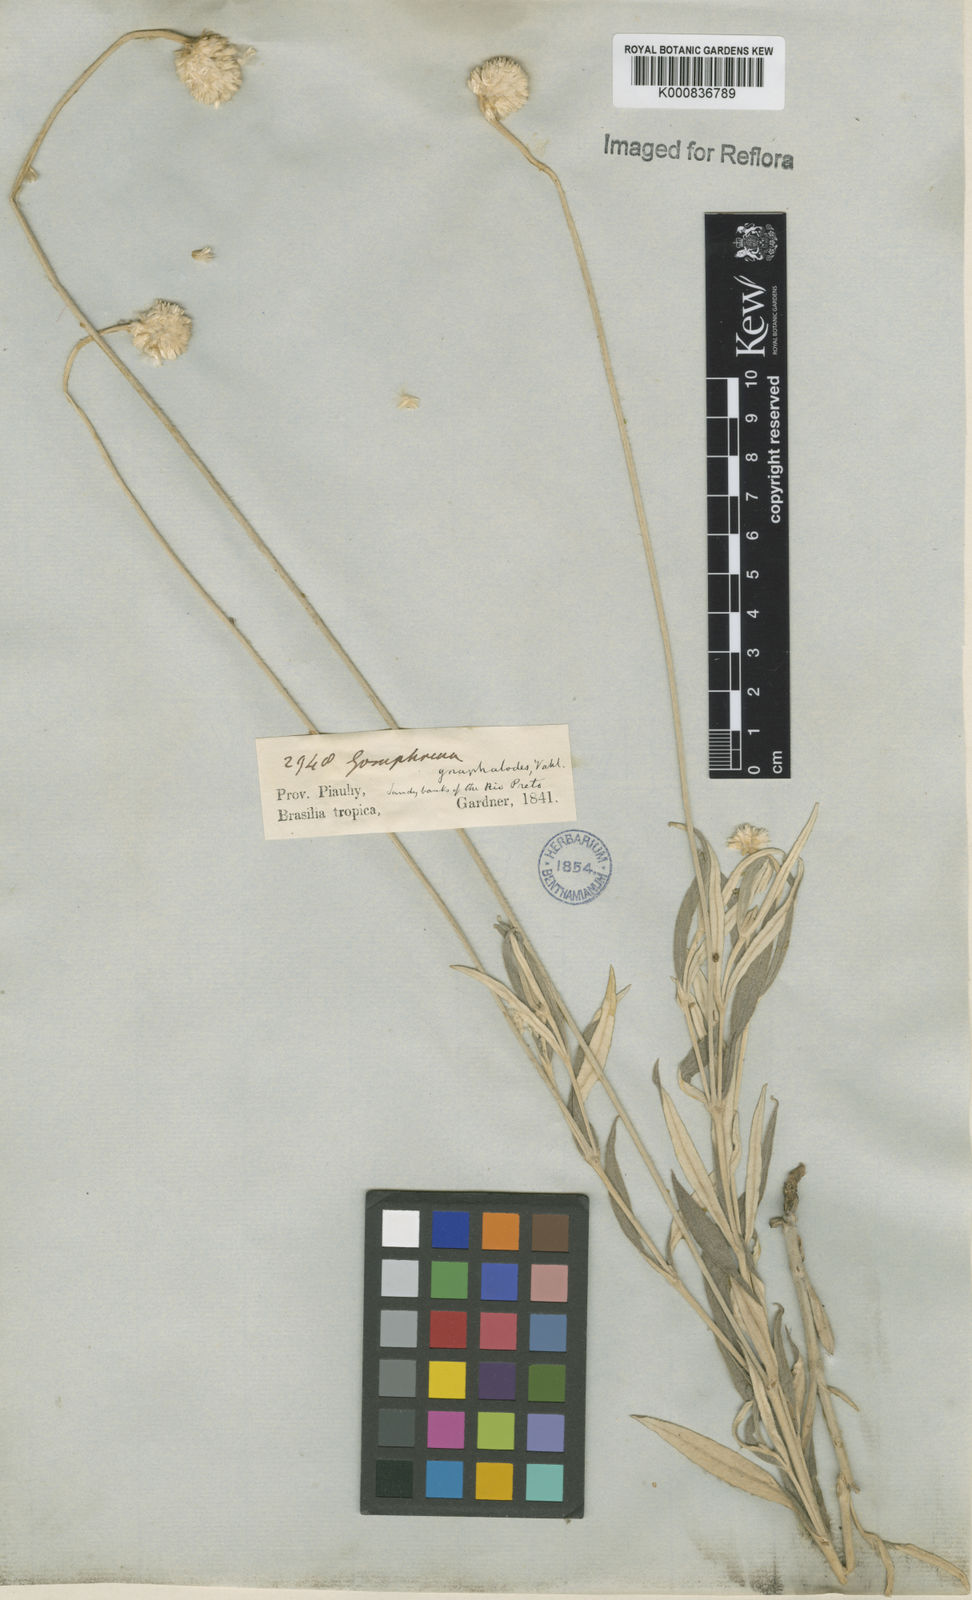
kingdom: Plantae
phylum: Tracheophyta
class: Magnoliopsida
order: Caryophyllales
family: Amaranthaceae
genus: Pfaffia
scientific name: Pfaffia
